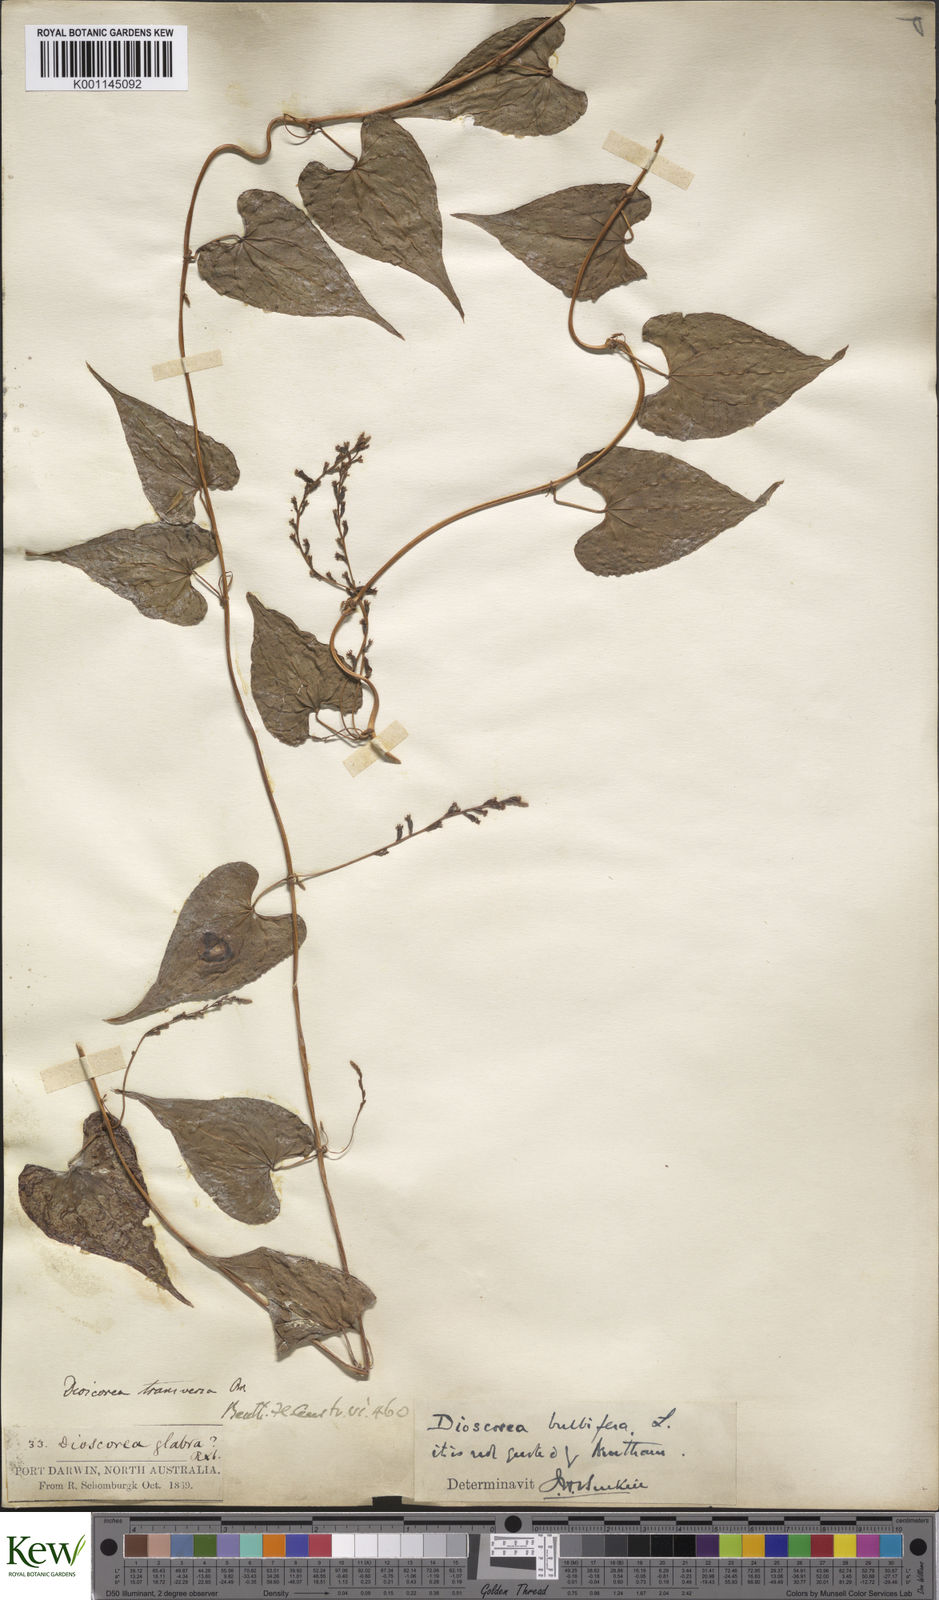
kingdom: Plantae
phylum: Tracheophyta
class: Liliopsida
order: Dioscoreales
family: Dioscoreaceae
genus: Dioscorea
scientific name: Dioscorea bulbifera
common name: Air yam
